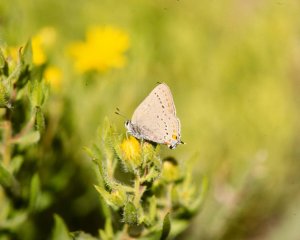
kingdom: Animalia
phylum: Arthropoda
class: Insecta
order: Lepidoptera
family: Lycaenidae
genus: Strymon
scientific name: Strymon acadica
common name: California Hairstreak
